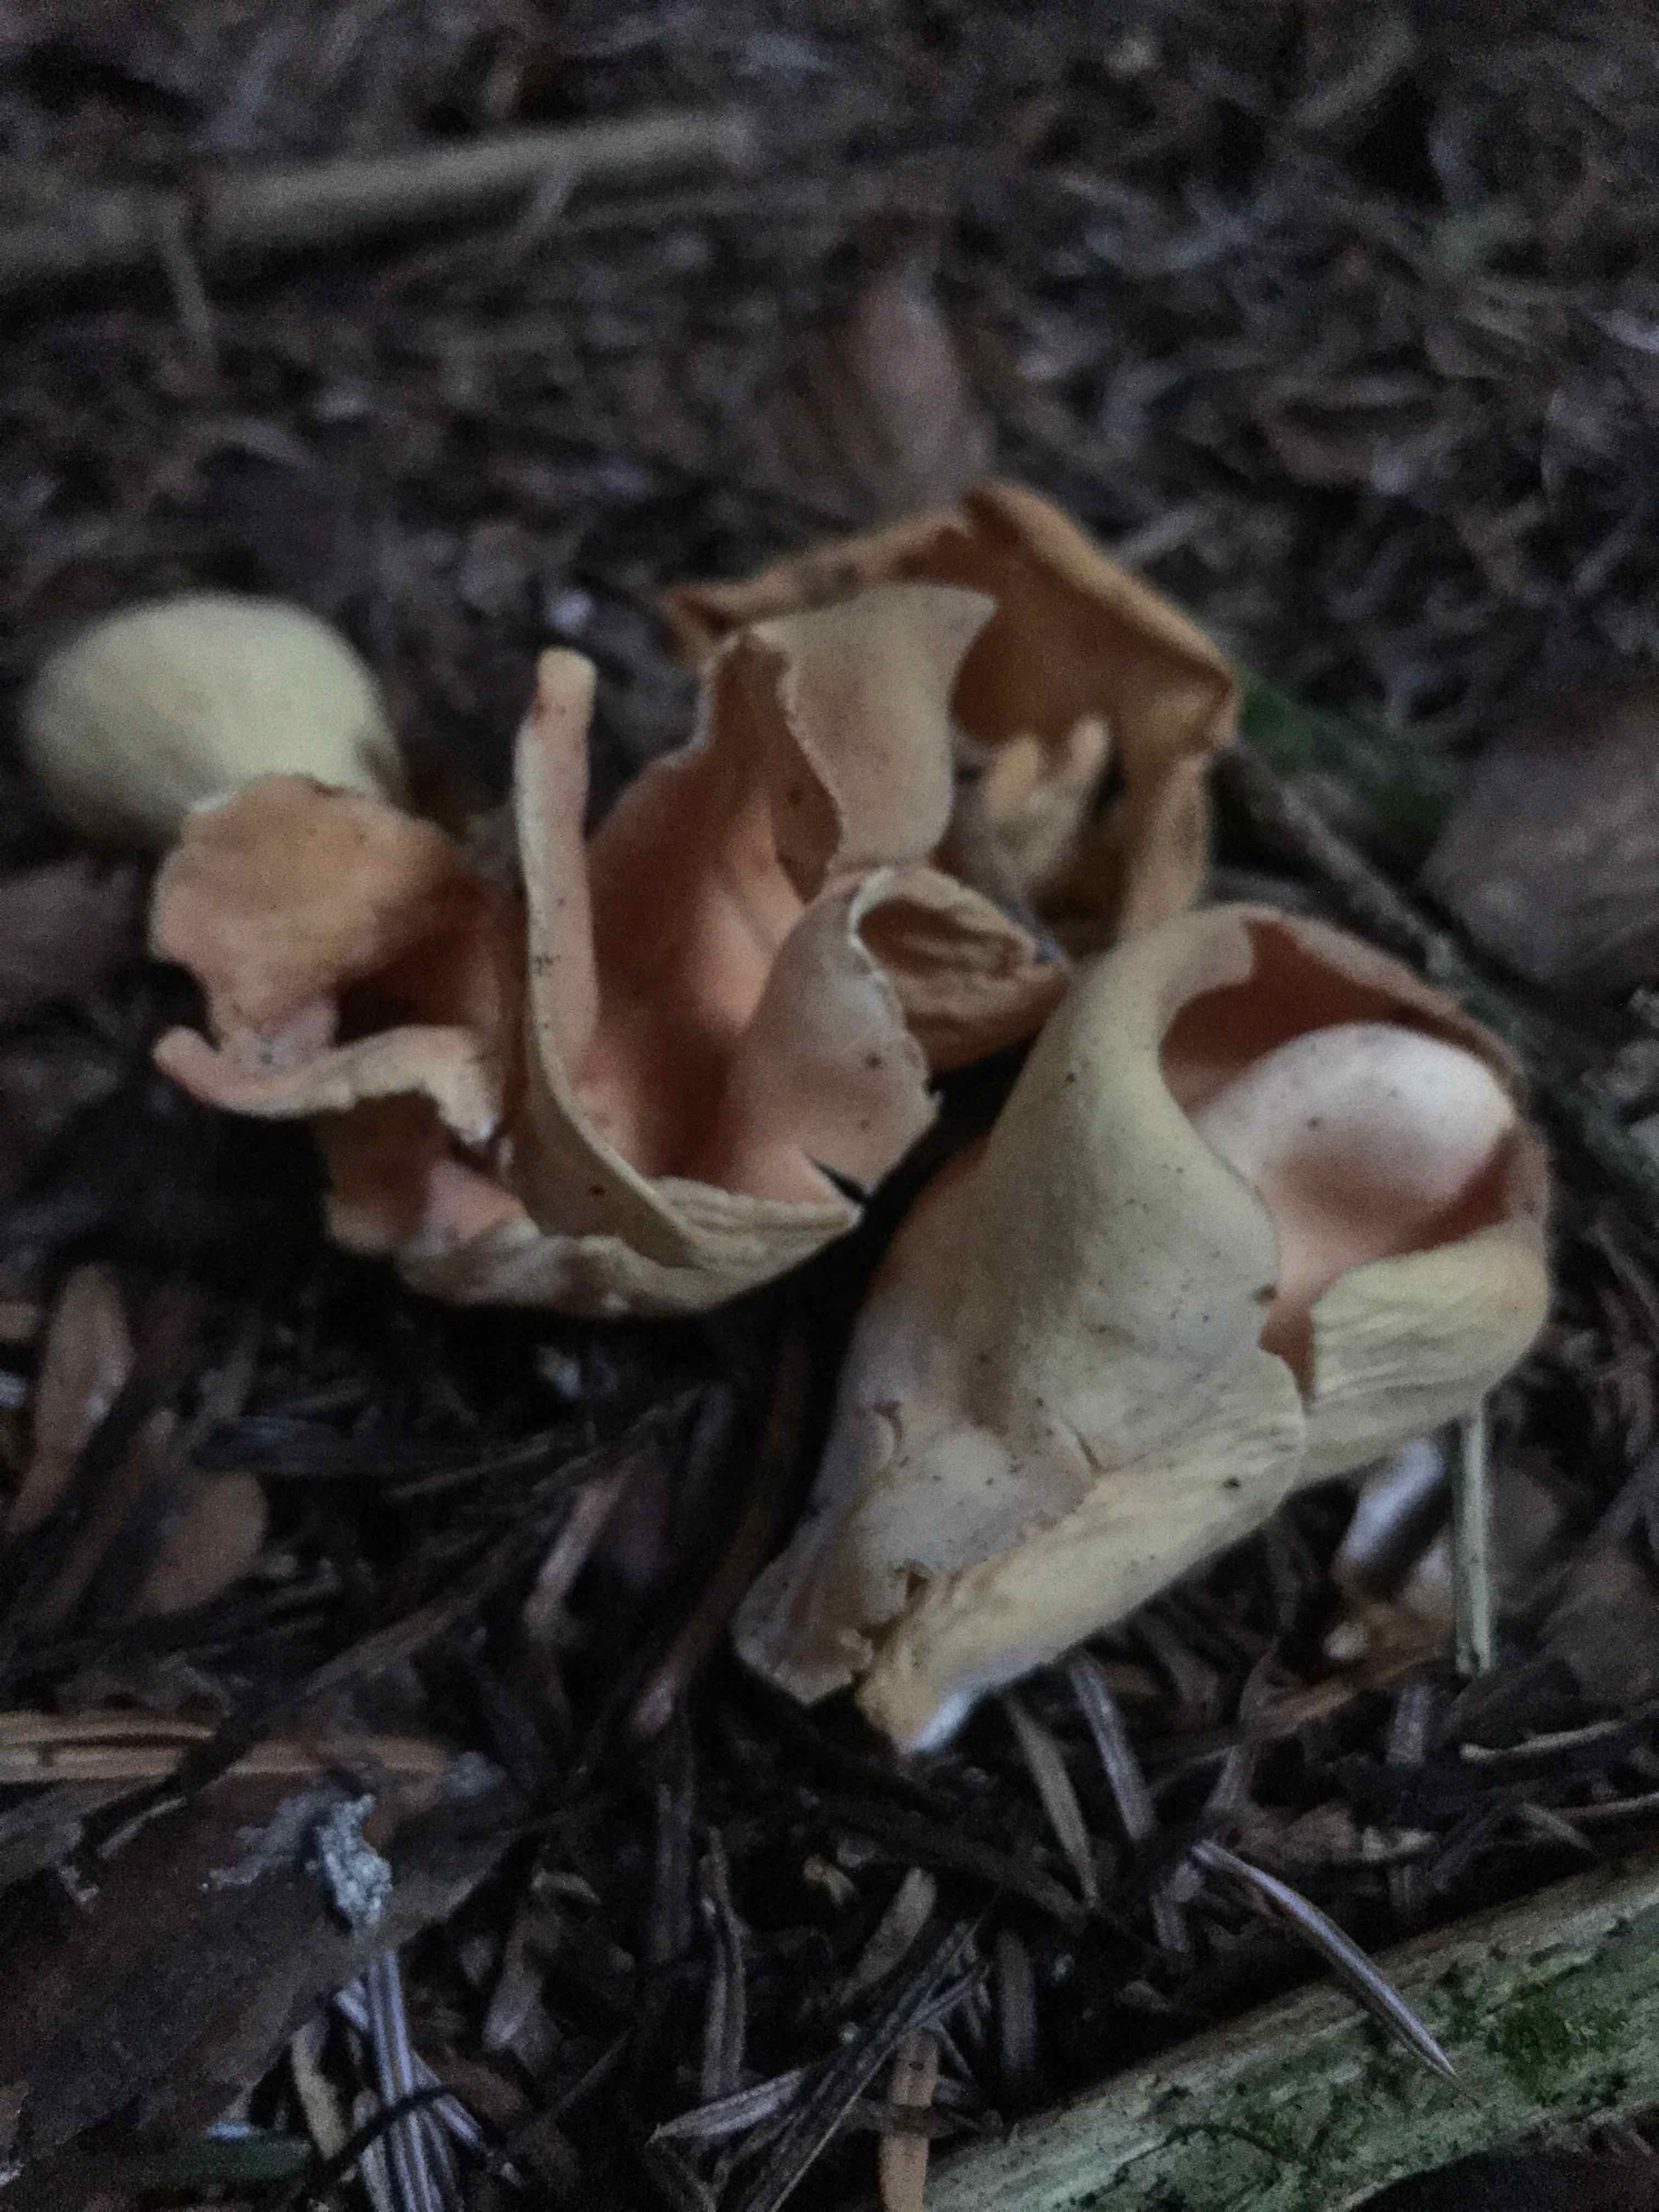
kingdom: Fungi
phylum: Ascomycota
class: Pezizomycetes
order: Pezizales
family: Otideaceae
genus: Otidea
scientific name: Otidea onotica
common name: æsel-ørebæger
